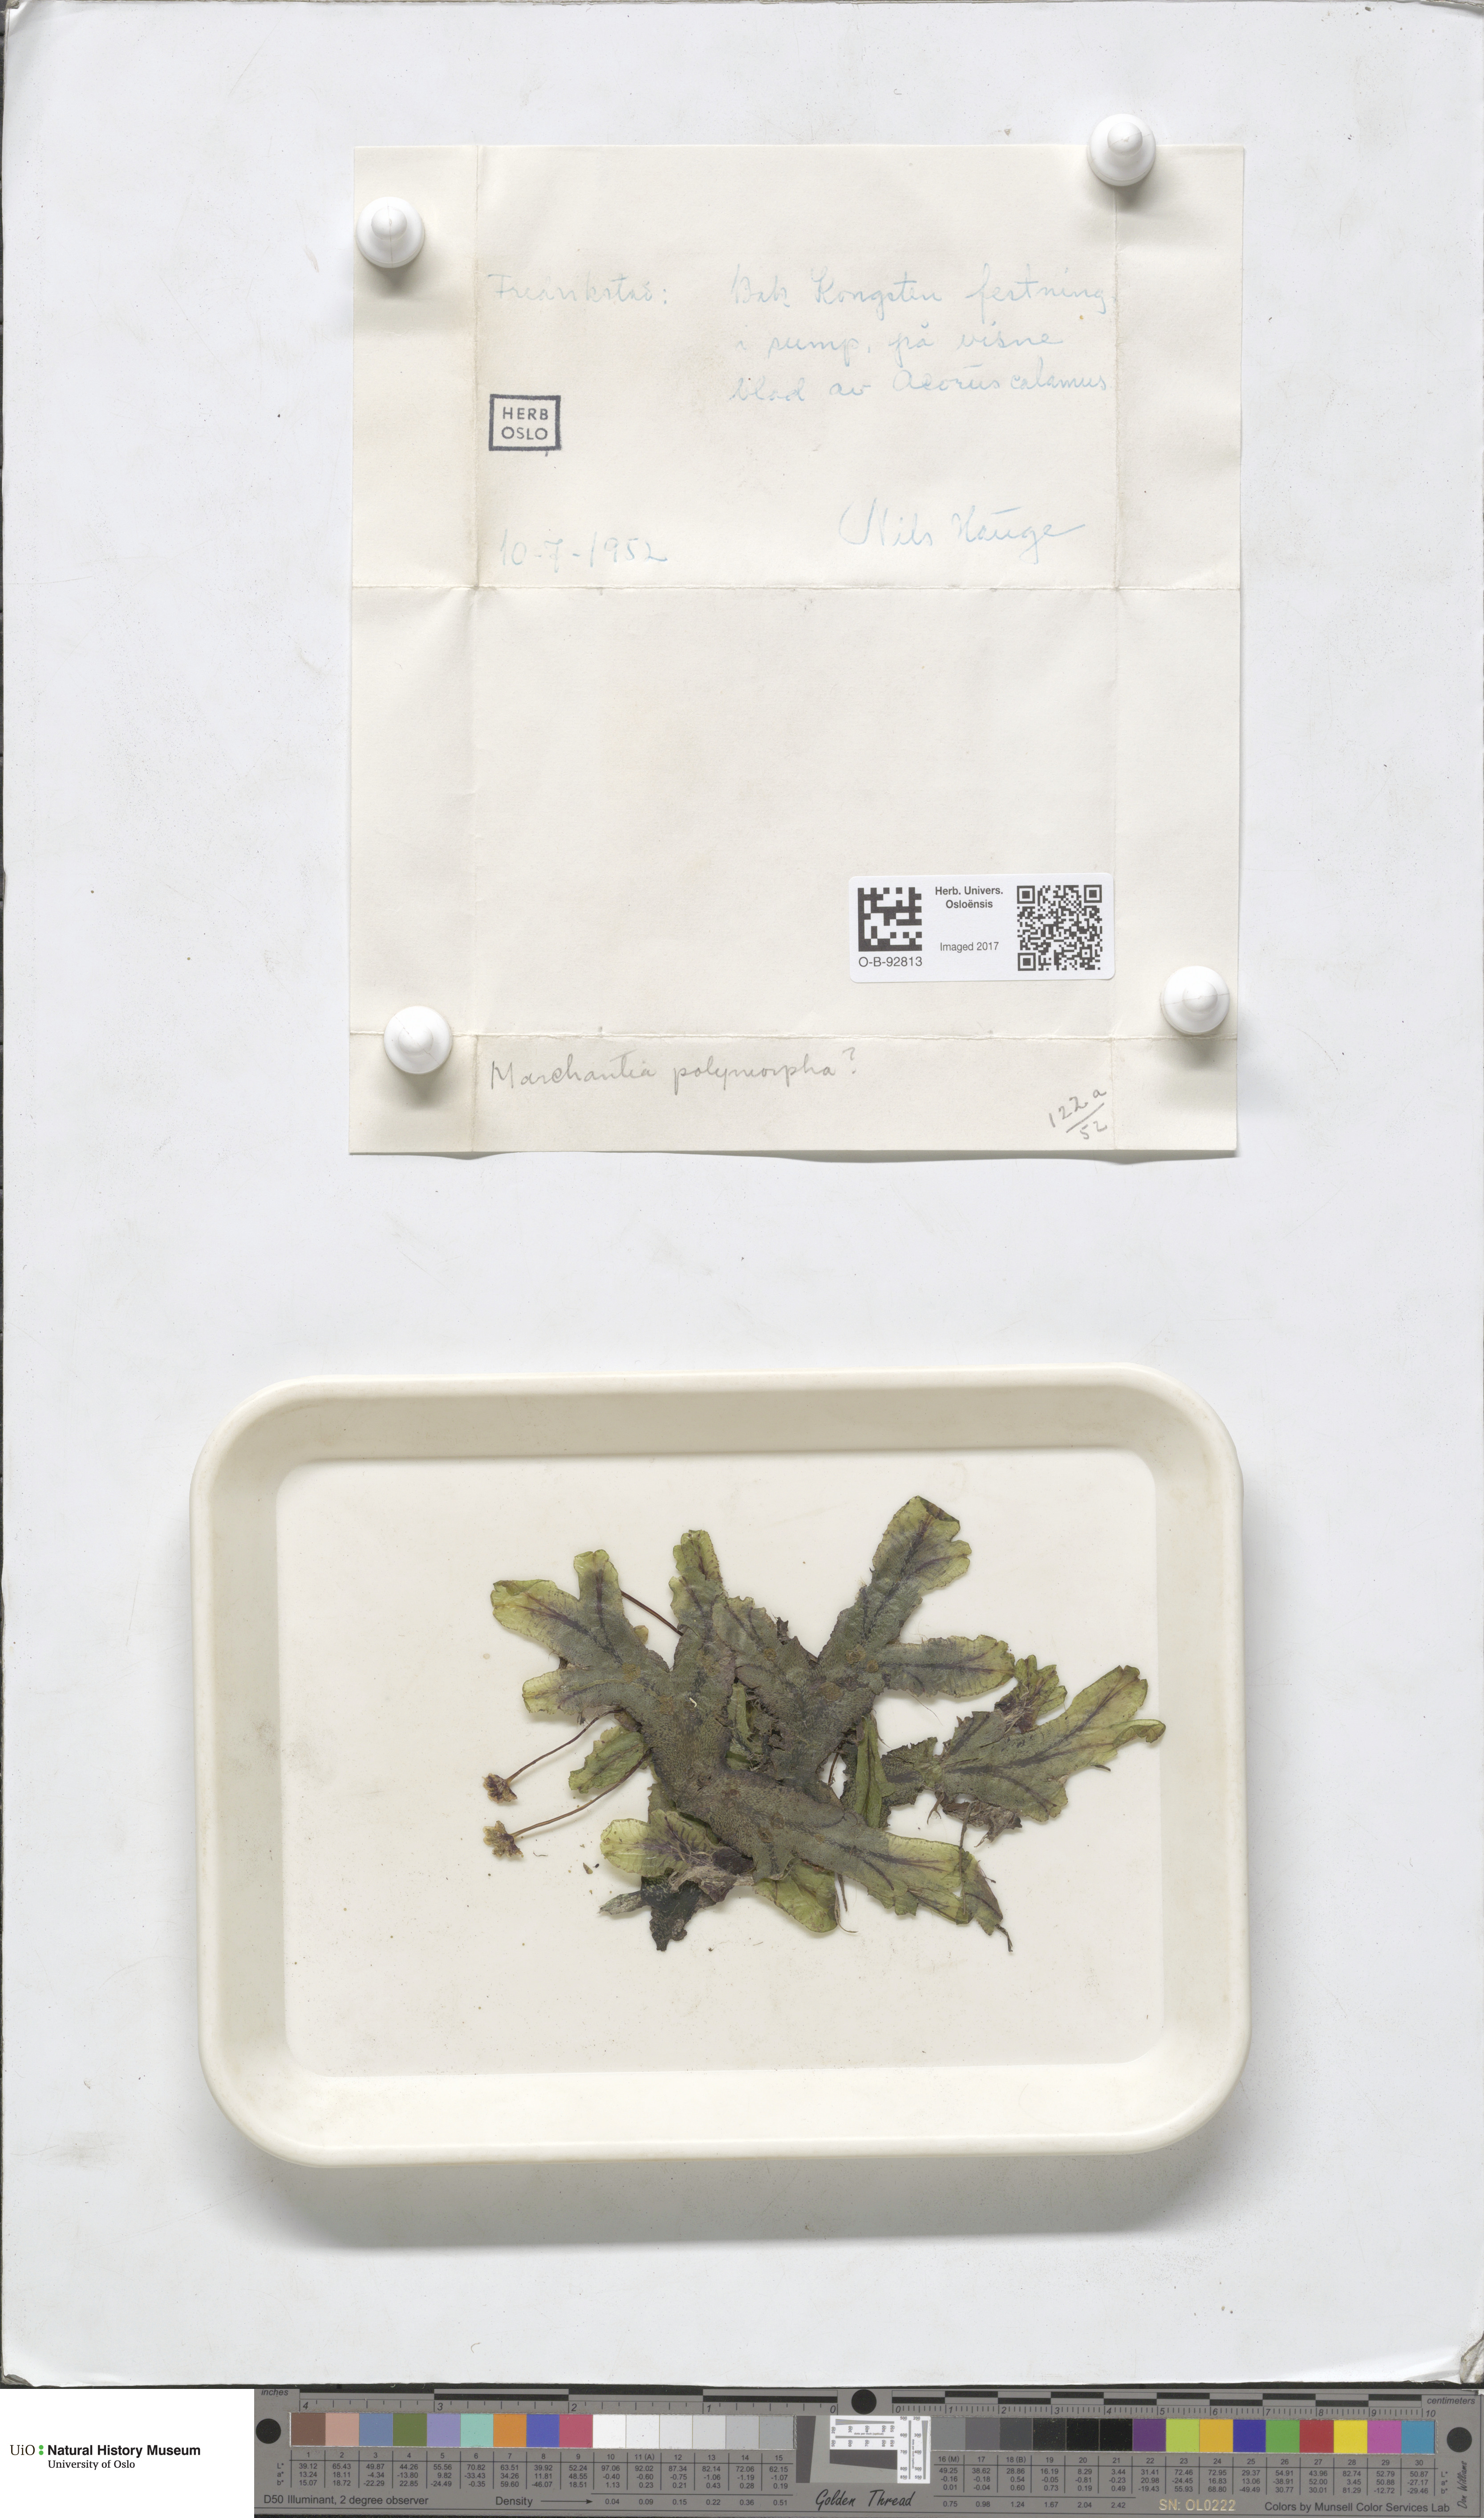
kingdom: Plantae
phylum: Marchantiophyta
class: Marchantiopsida
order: Marchantiales
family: Marchantiaceae
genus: Marchantia
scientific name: Marchantia polymorpha
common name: Common liverwort
